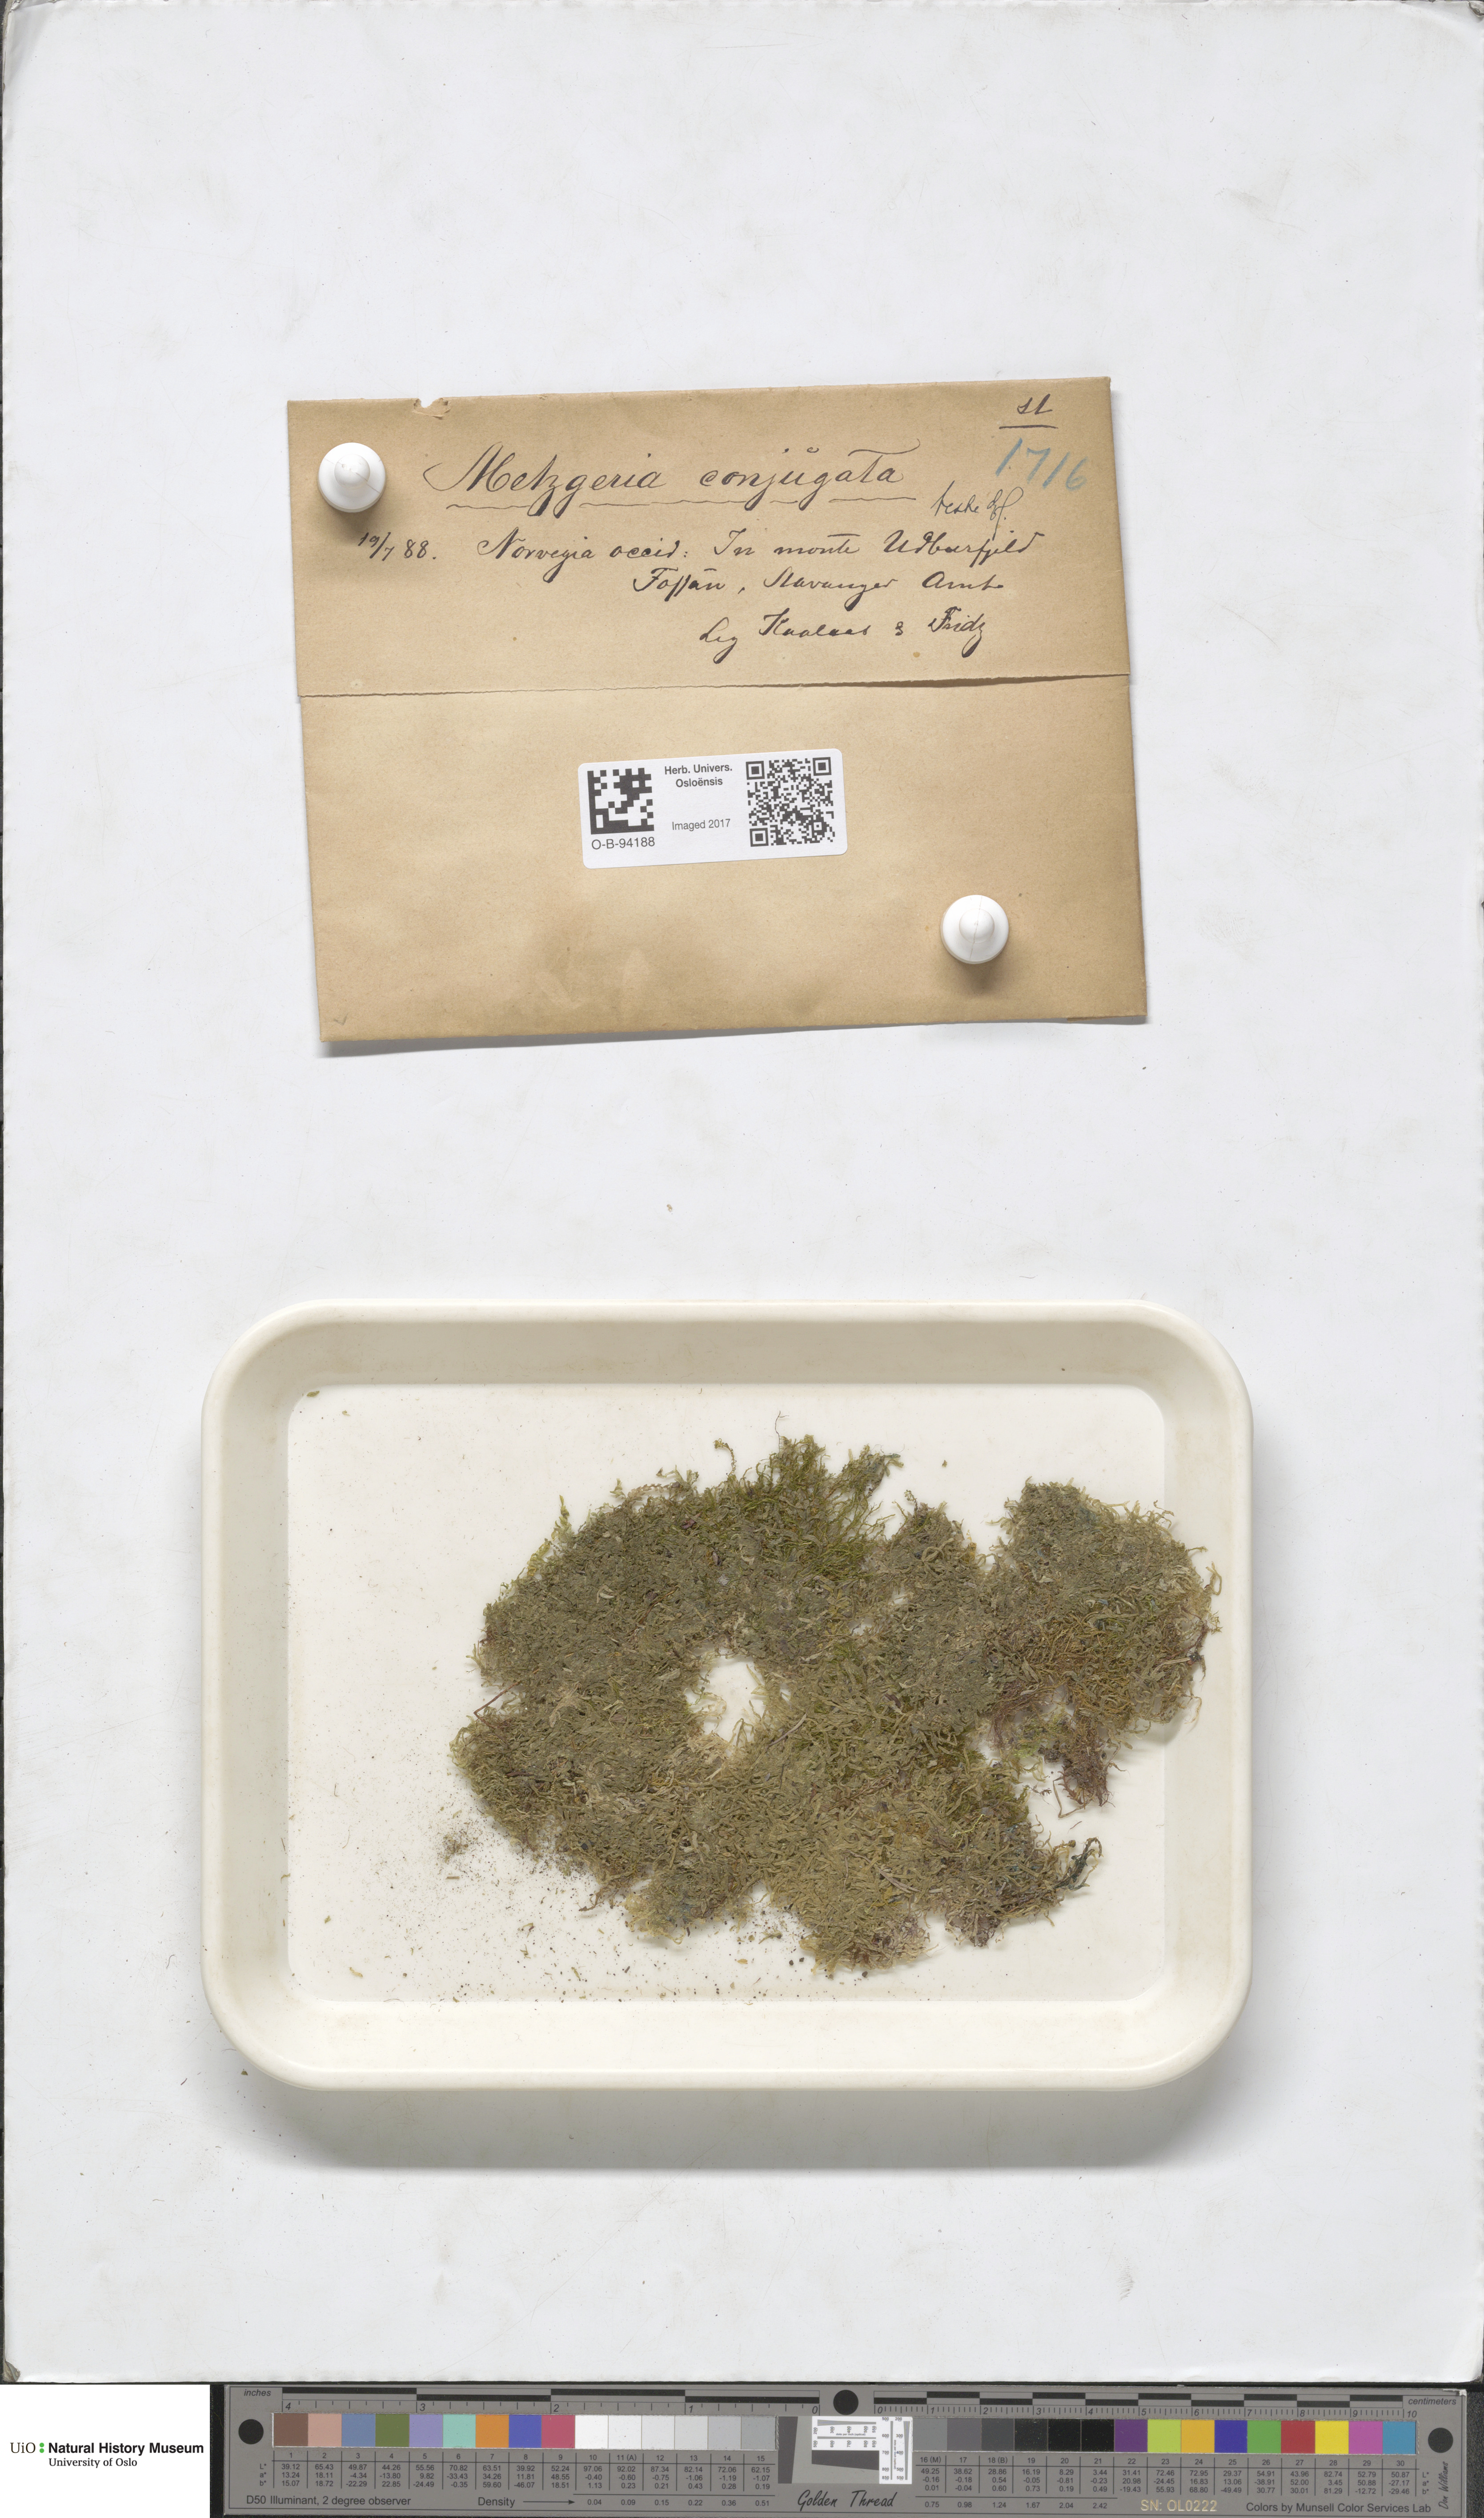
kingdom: Plantae
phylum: Marchantiophyta
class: Jungermanniopsida
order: Metzgeriales
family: Metzgeriaceae
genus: Metzgeria
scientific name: Metzgeria conjugata
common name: Rock veilwort
